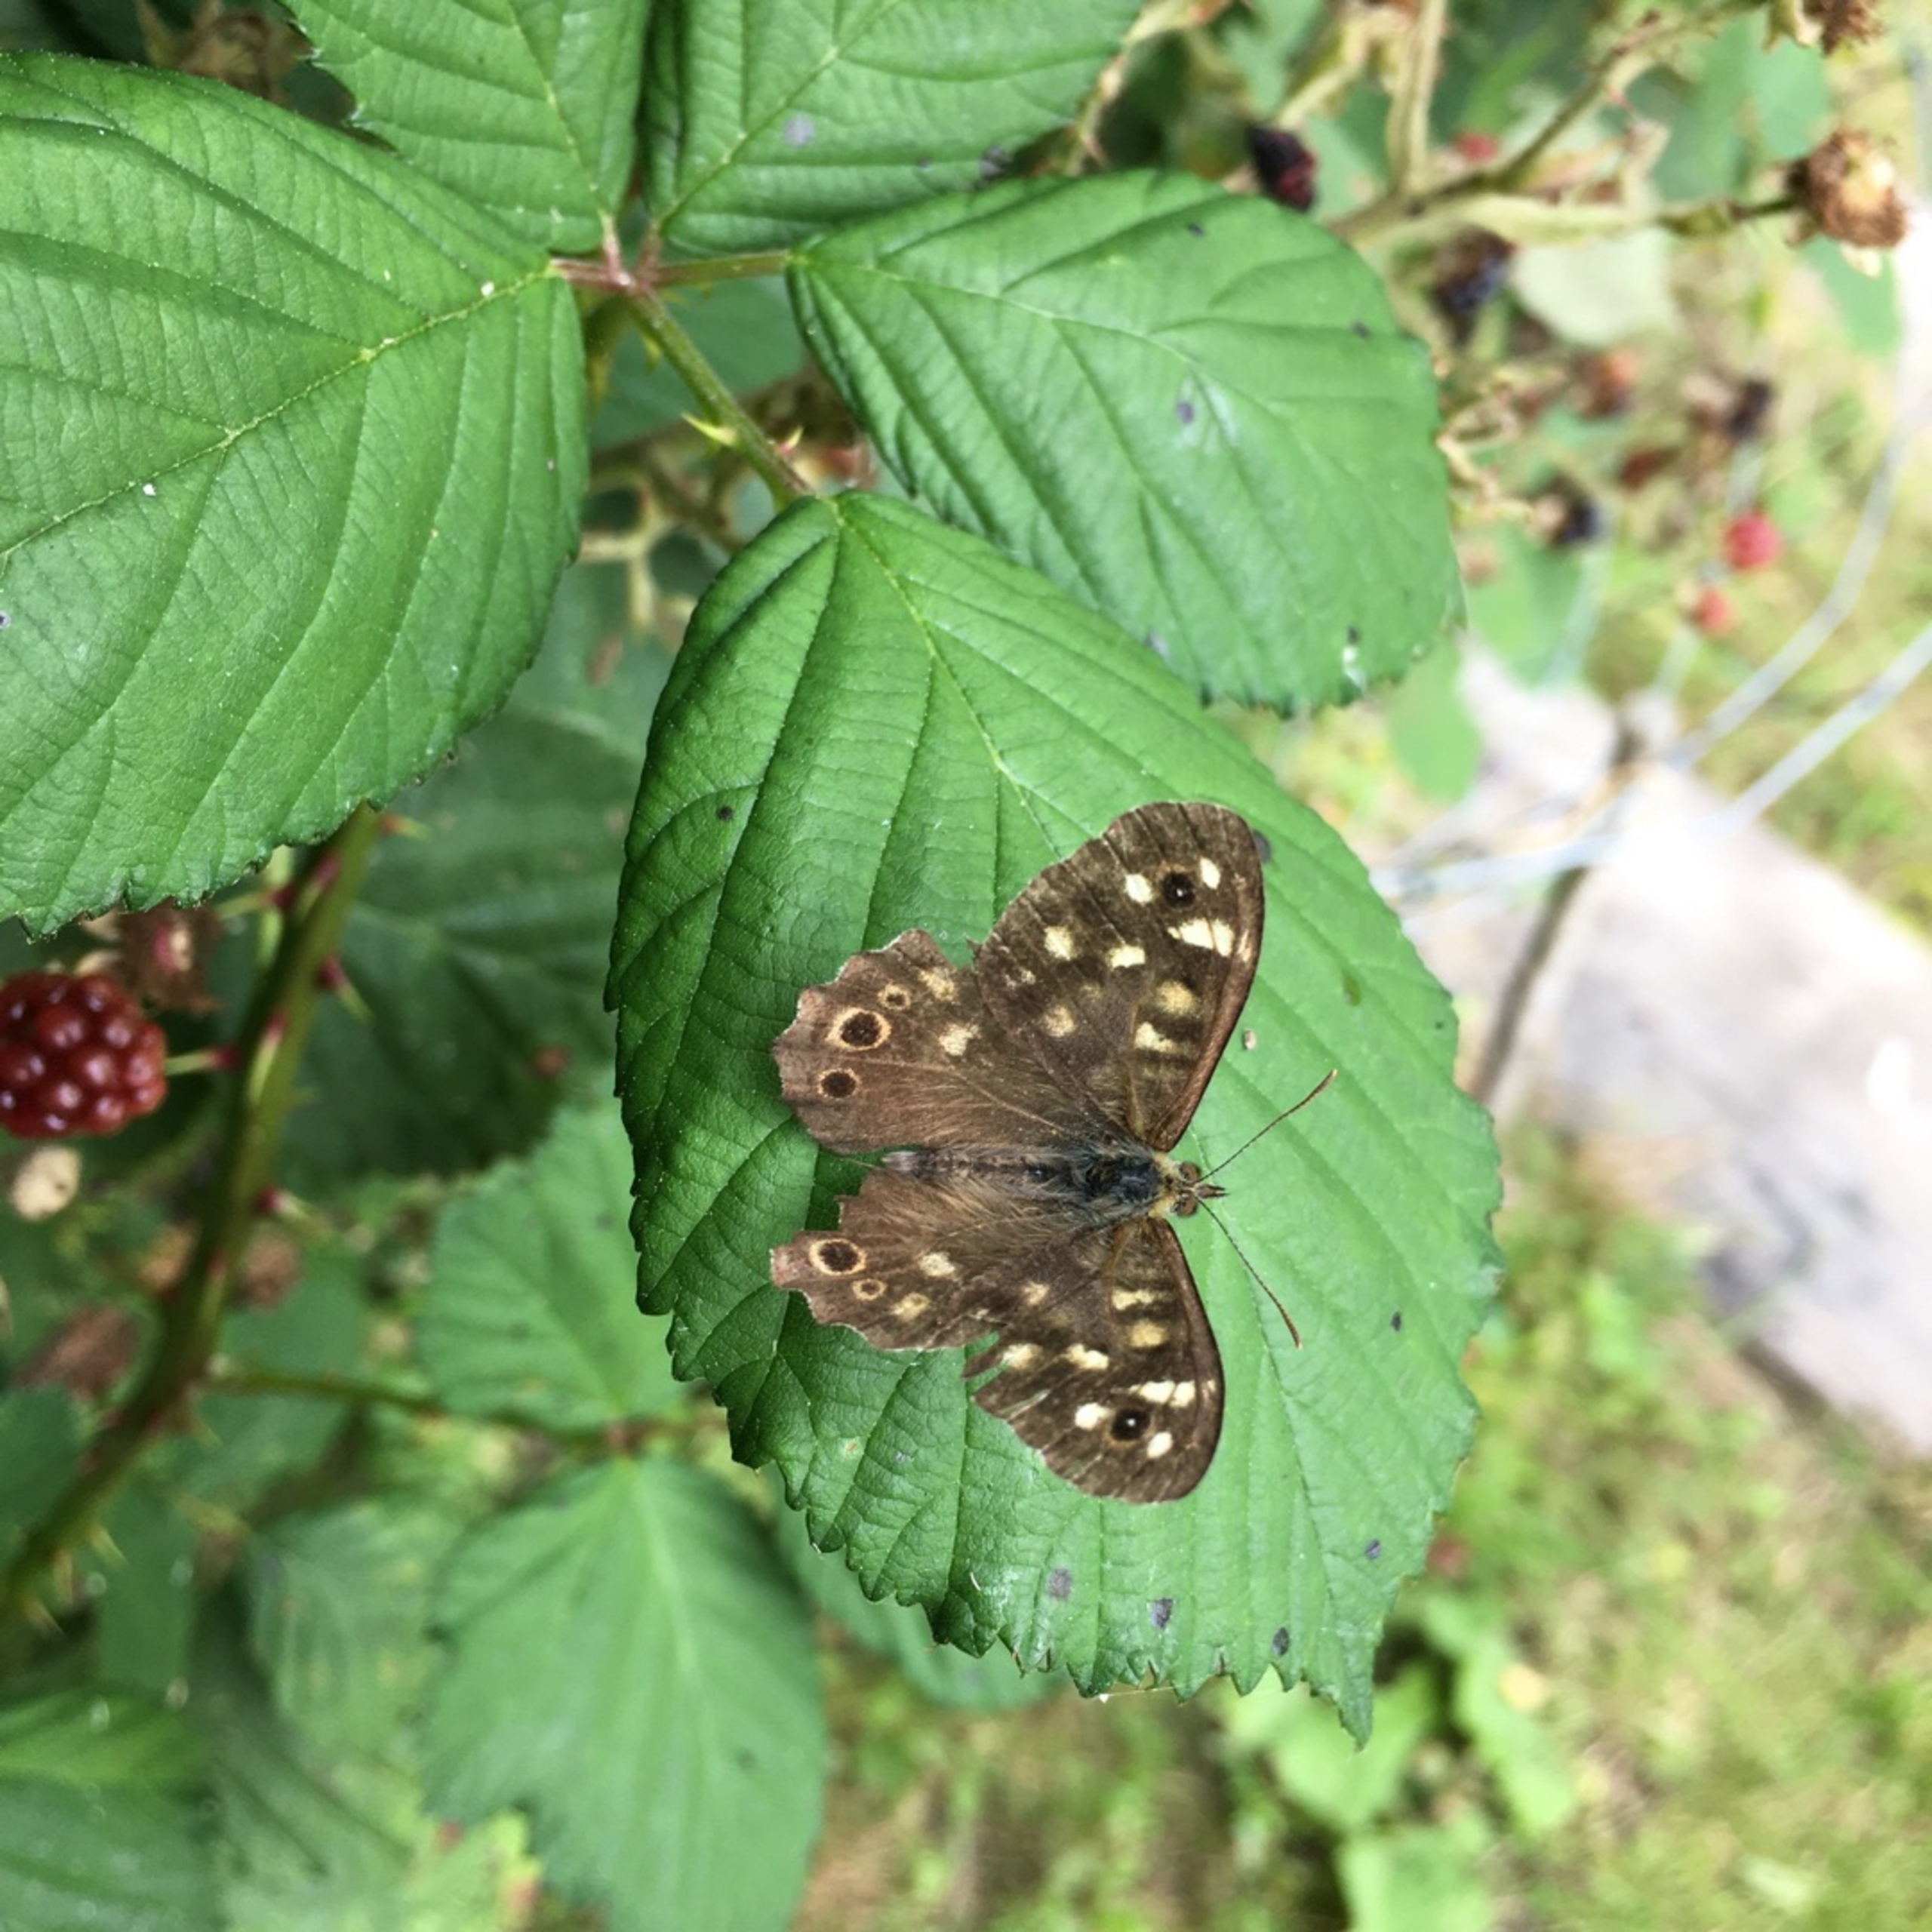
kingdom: Animalia
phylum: Arthropoda
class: Insecta
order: Lepidoptera
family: Nymphalidae
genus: Pararge
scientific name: Pararge aegeria
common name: Skovrandøje
